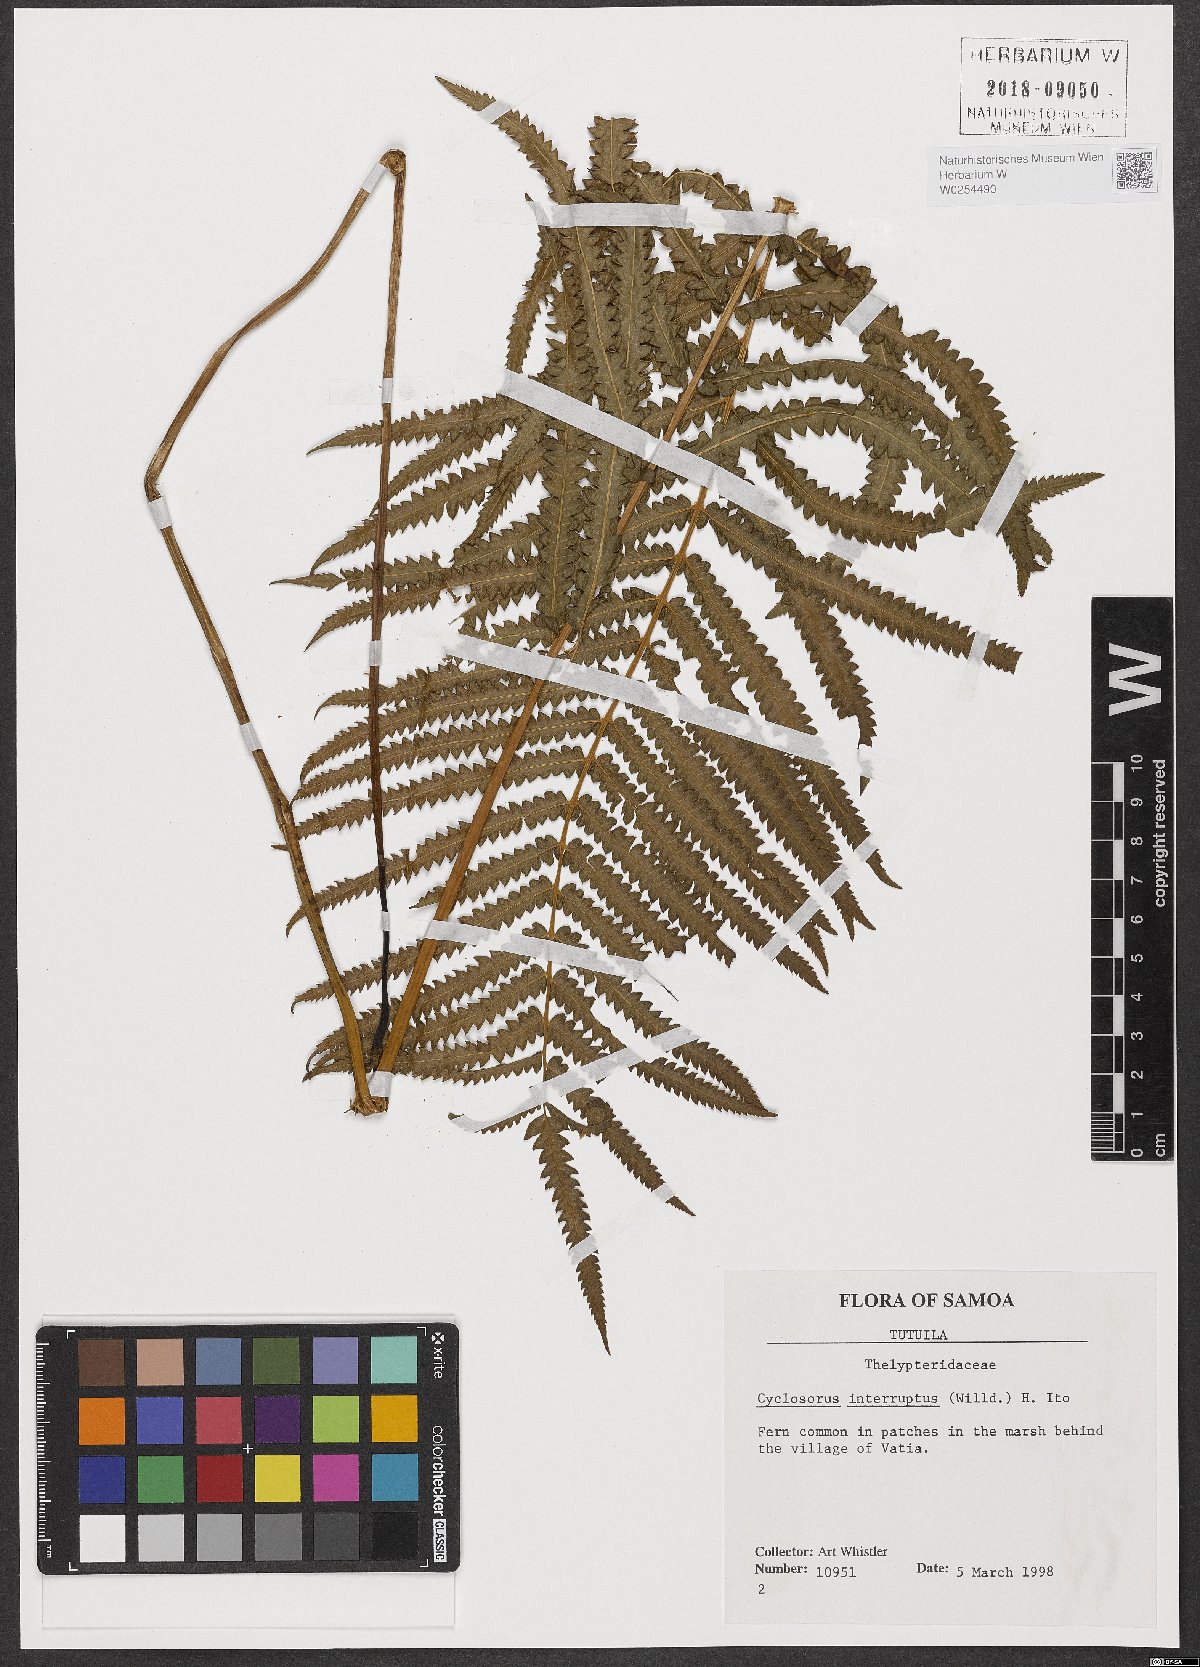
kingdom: Plantae
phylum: Tracheophyta
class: Polypodiopsida
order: Polypodiales
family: Thelypteridaceae
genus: Cyclosorus
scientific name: Cyclosorus interruptus
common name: Neke fern
